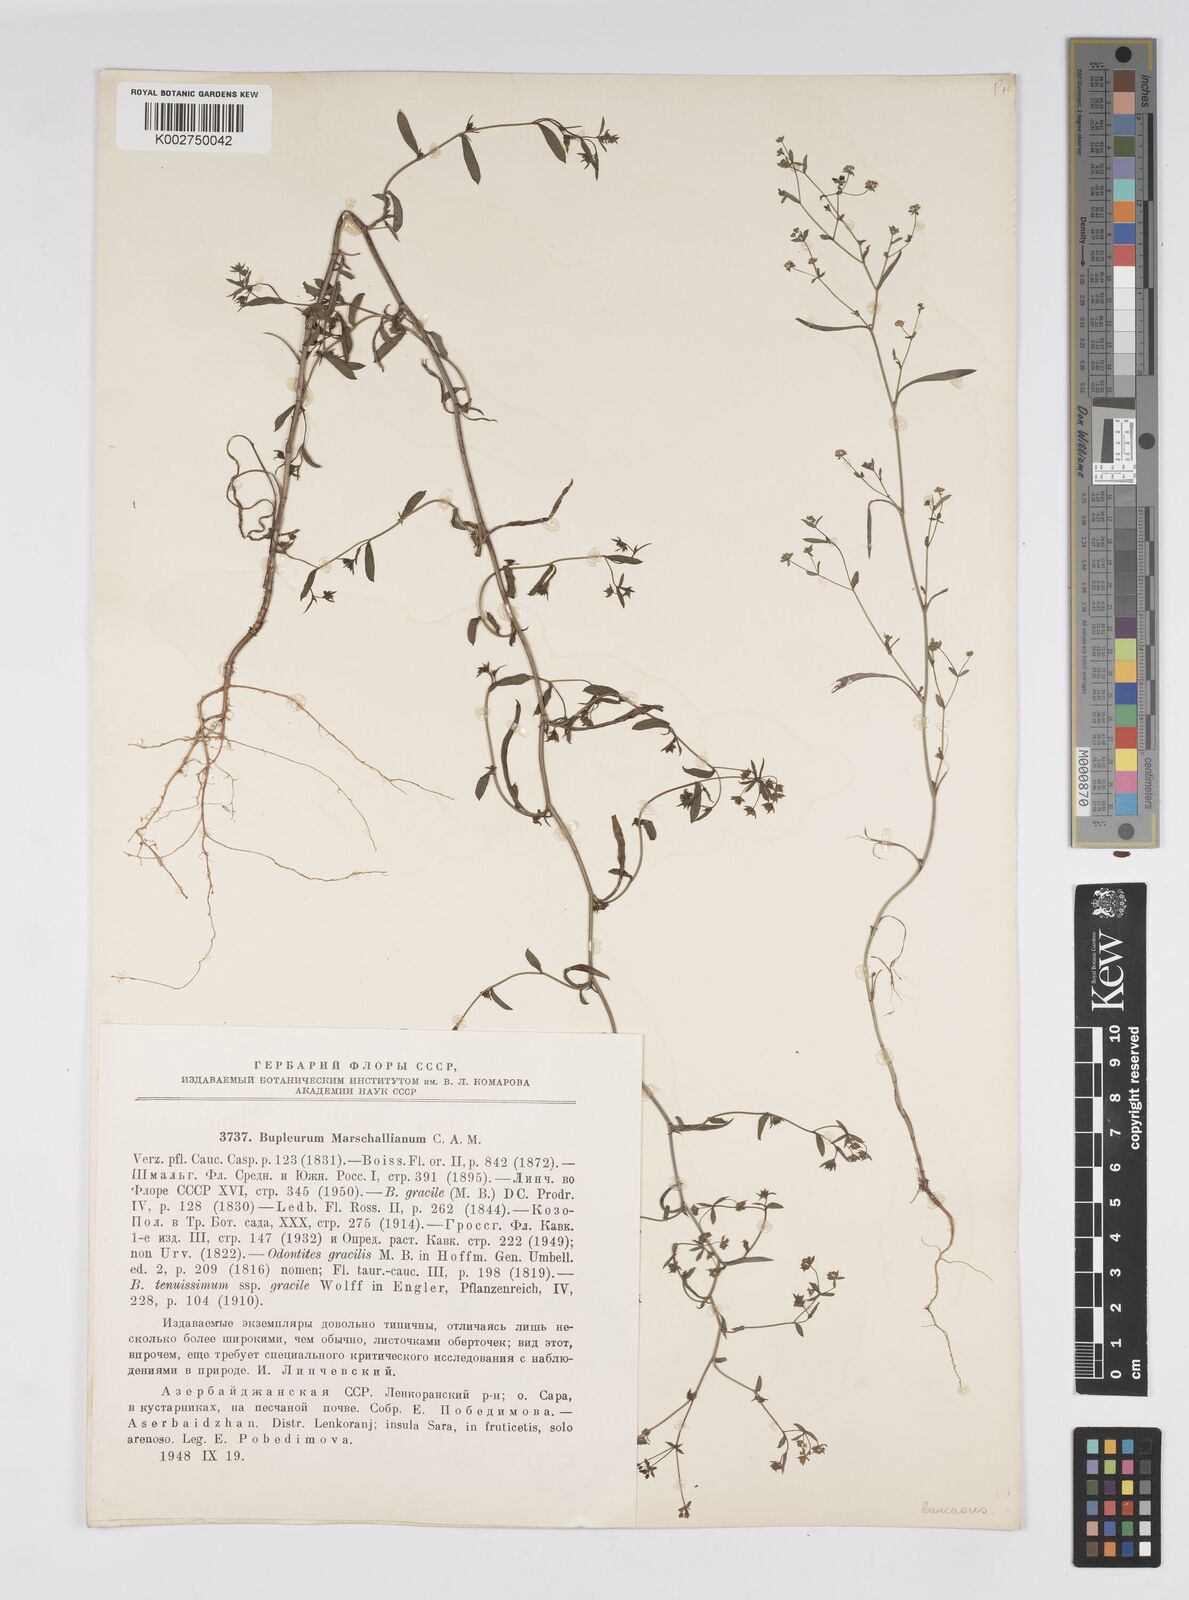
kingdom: Plantae
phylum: Tracheophyta
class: Magnoliopsida
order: Apiales
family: Apiaceae
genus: Bupleurum
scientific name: Bupleurum marschallianum
